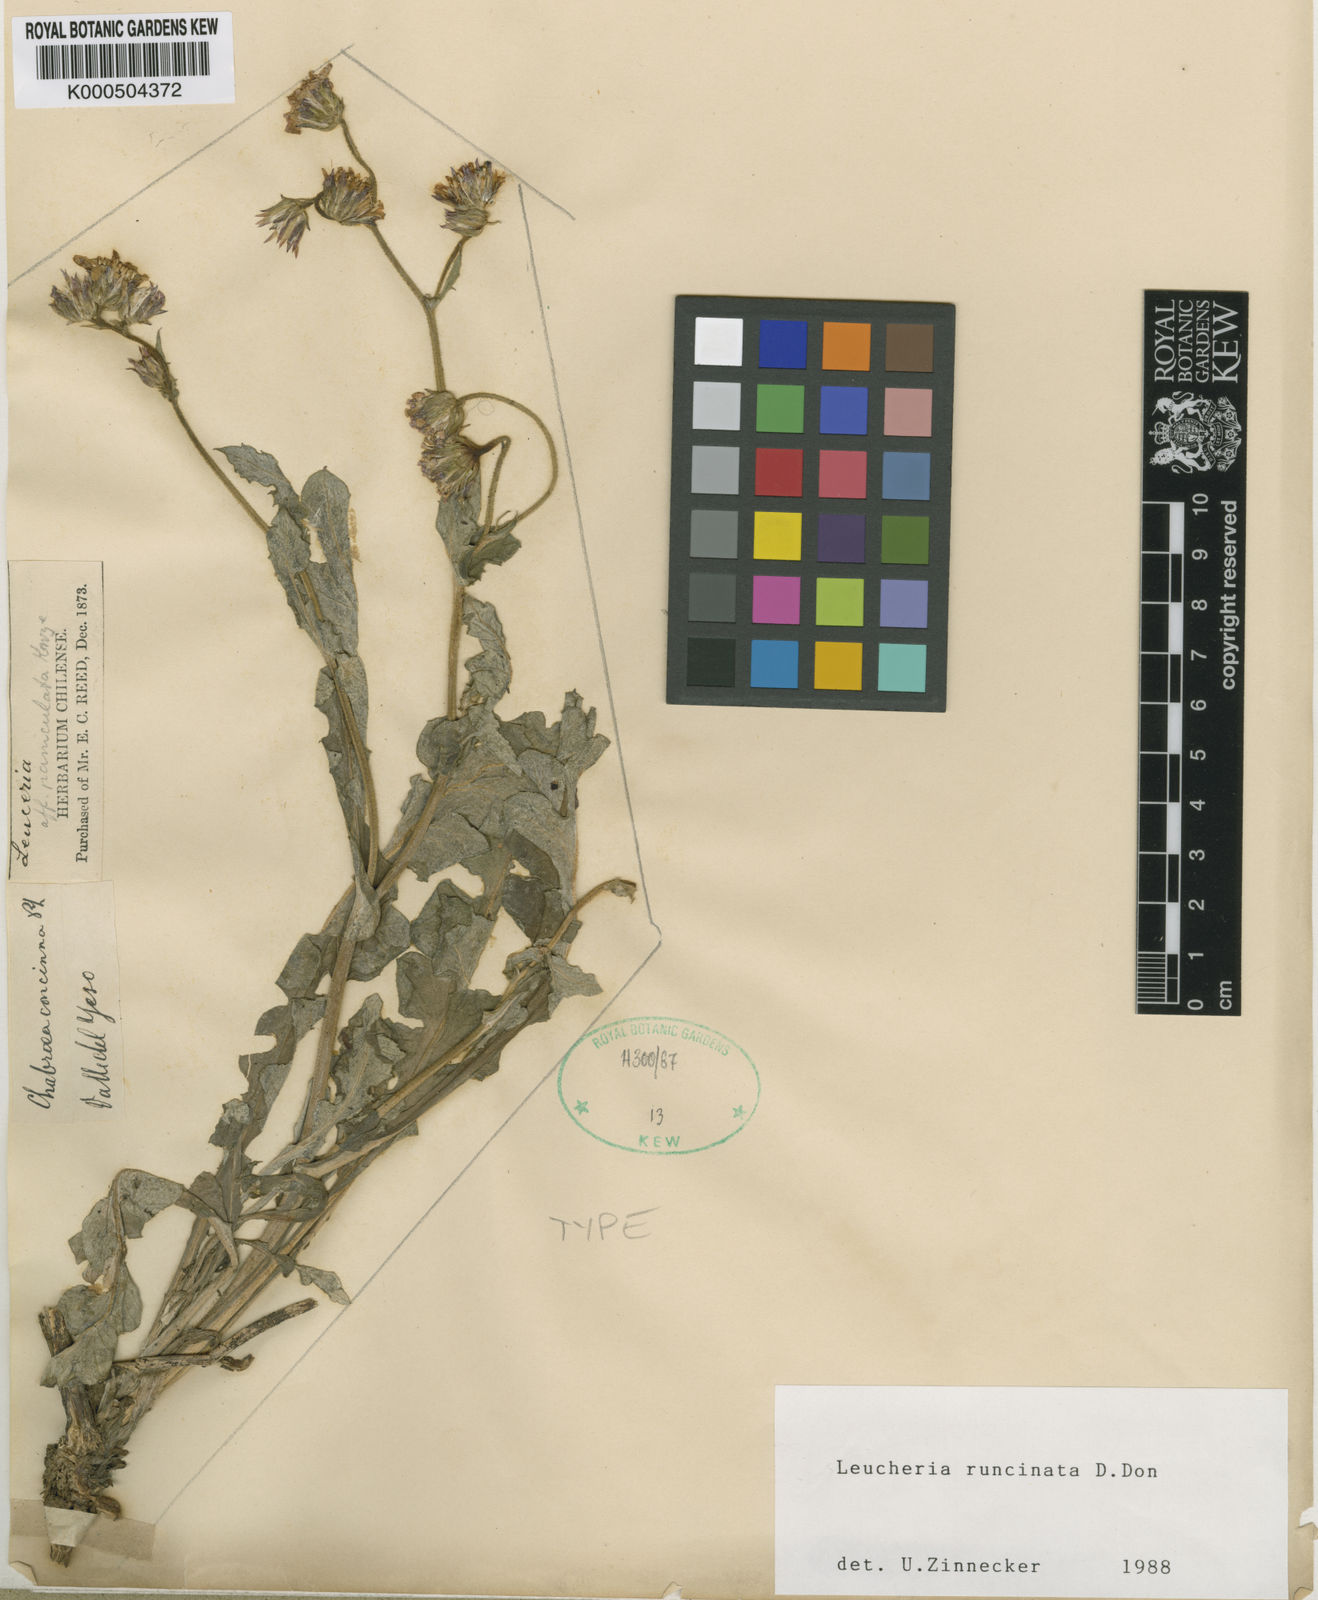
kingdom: Plantae
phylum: Tracheophyta
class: Magnoliopsida
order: Asterales
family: Asteraceae
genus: Leucheria
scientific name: Leucheria runcinata
